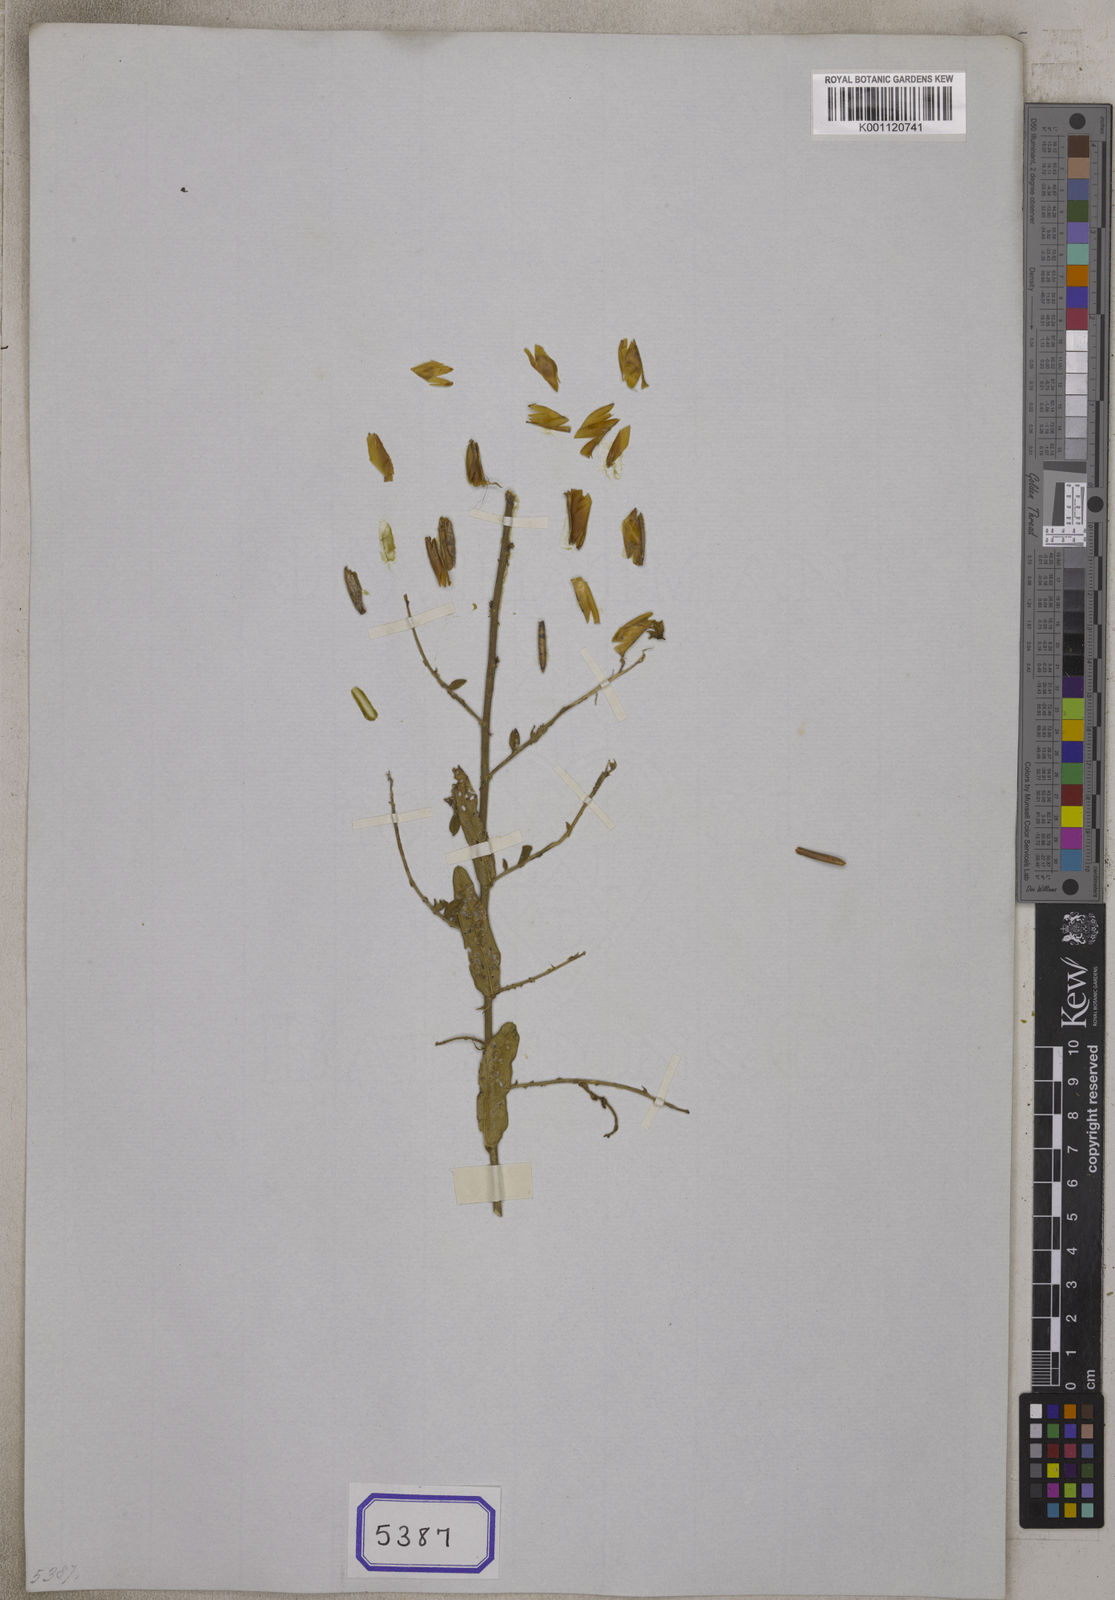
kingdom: Plantae
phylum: Tracheophyta
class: Magnoliopsida
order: Fabales
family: Fabaceae
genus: Crotalaria
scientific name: Crotalaria
